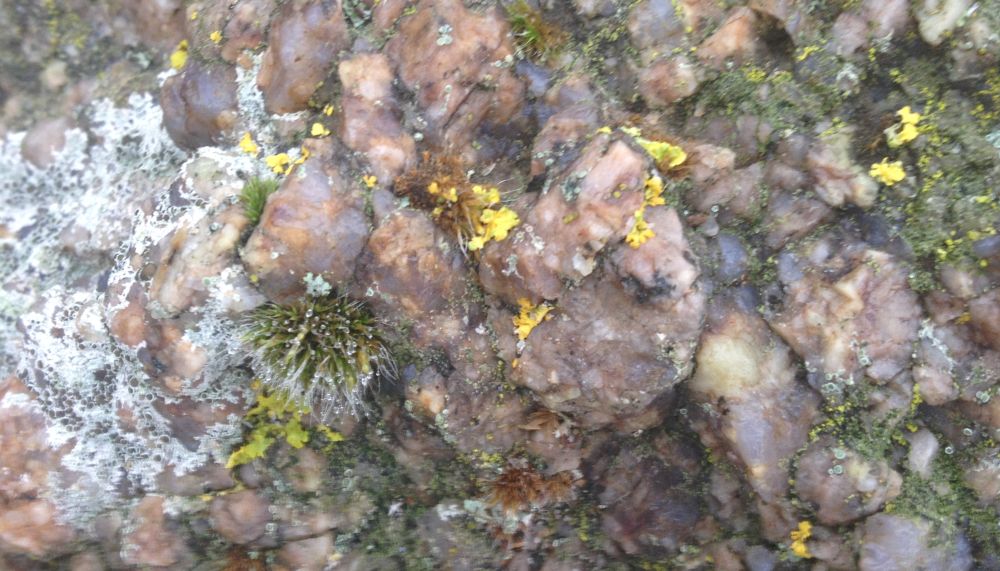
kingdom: Fungi
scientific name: Fungi
